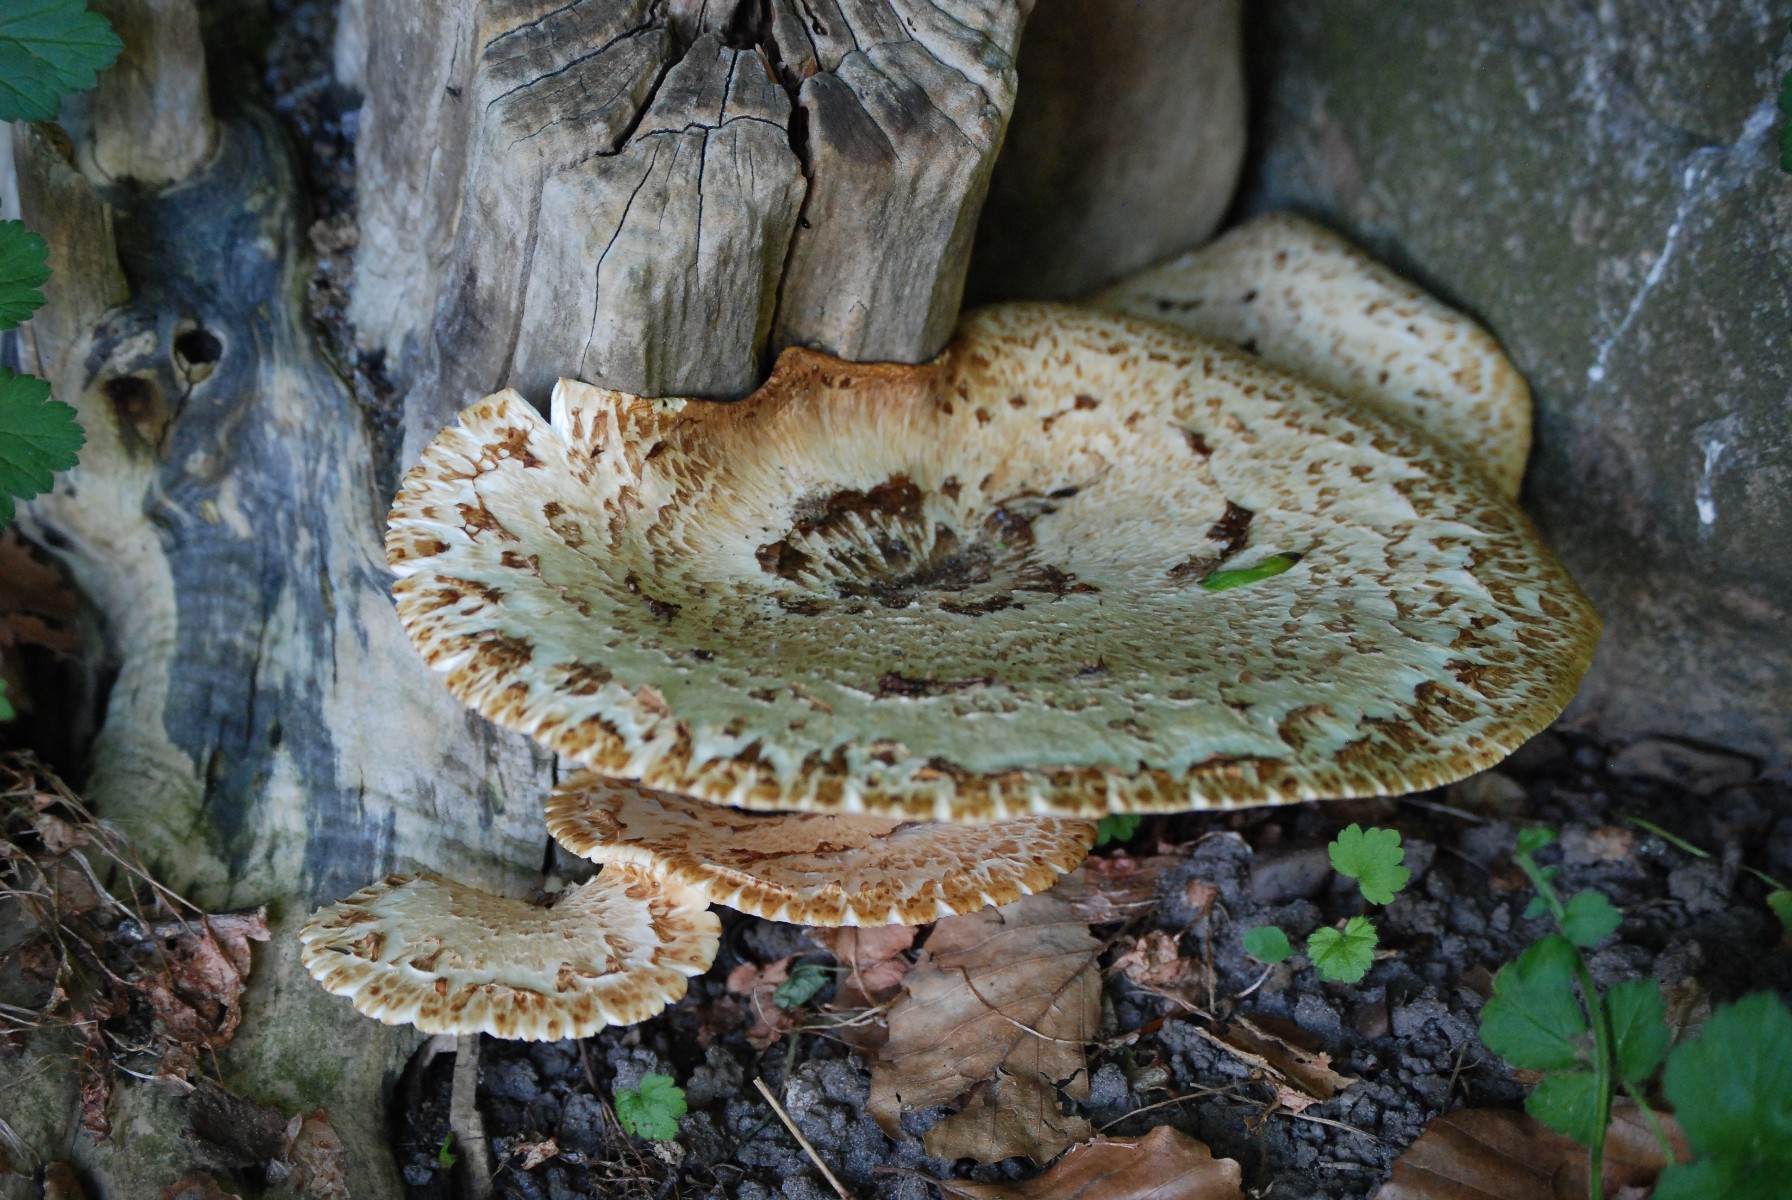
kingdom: Fungi
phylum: Basidiomycota
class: Agaricomycetes
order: Polyporales
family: Polyporaceae
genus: Cerioporus
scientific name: Cerioporus squamosus
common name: skællet stilkporesvamp
